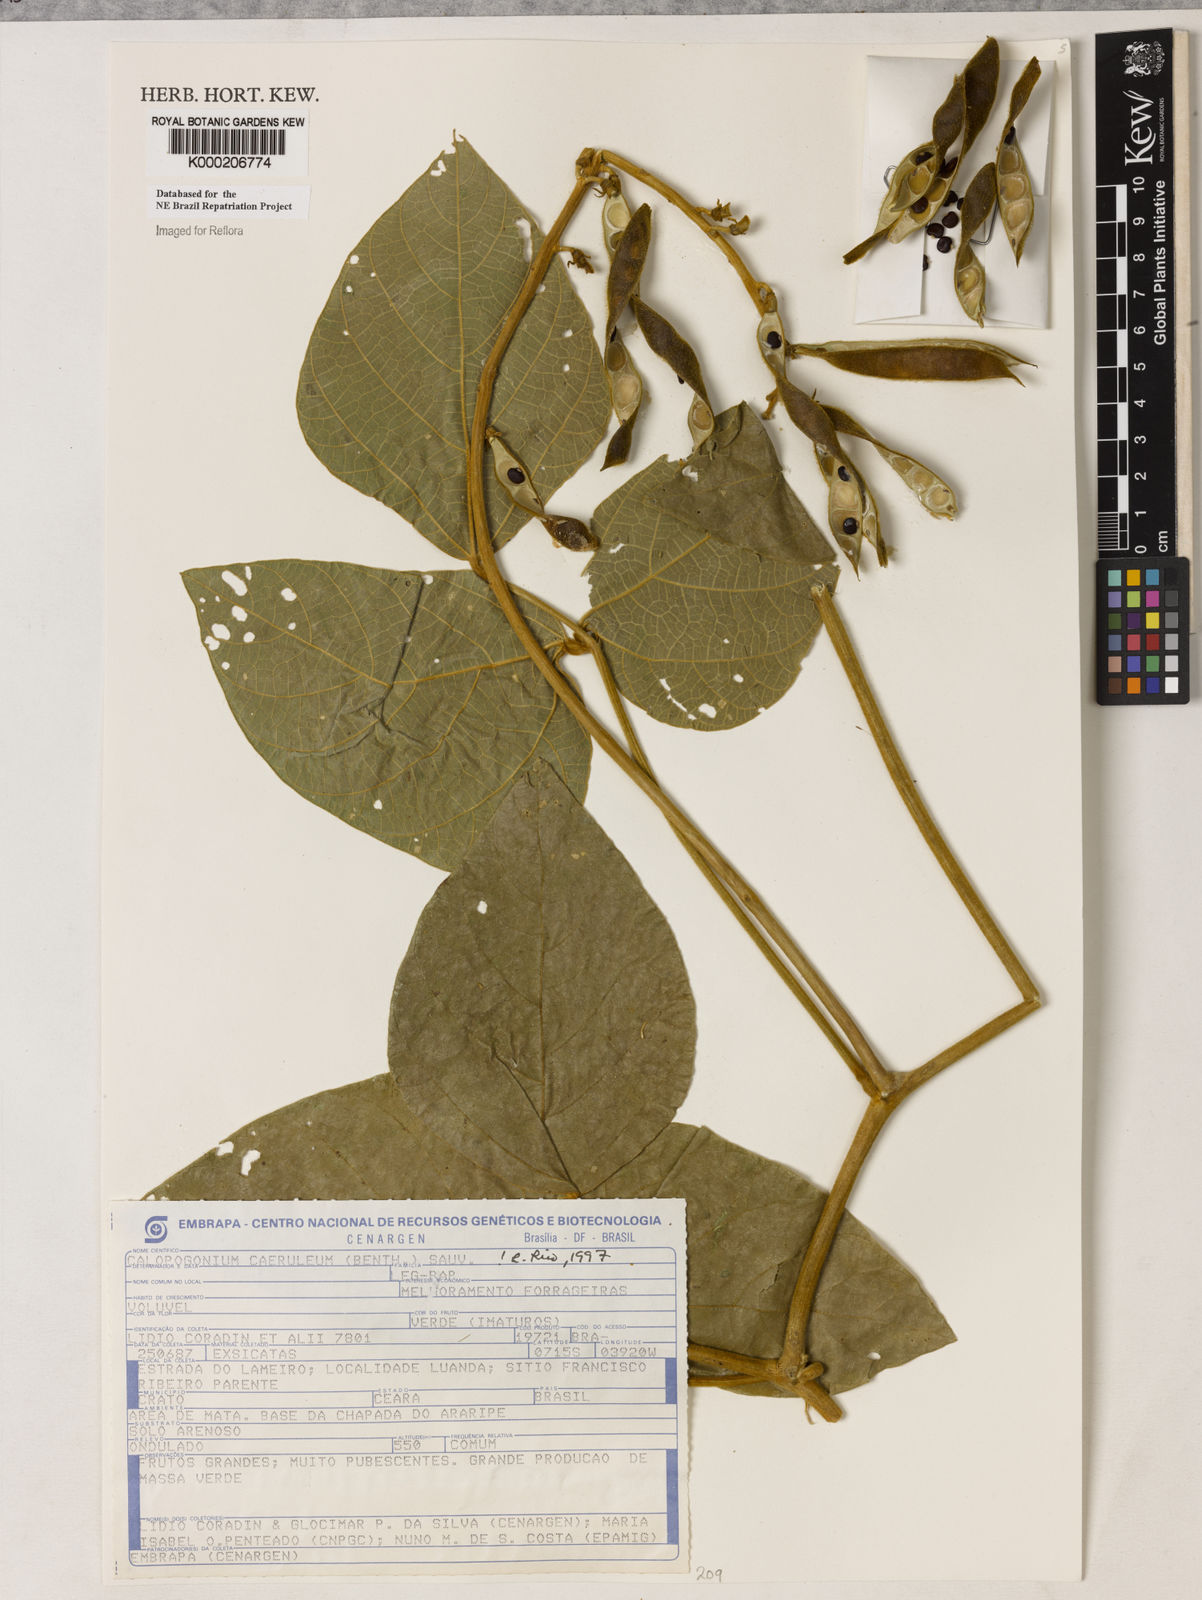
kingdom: Plantae
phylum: Tracheophyta
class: Magnoliopsida
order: Fabales
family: Fabaceae
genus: Calopogonium
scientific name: Calopogonium
